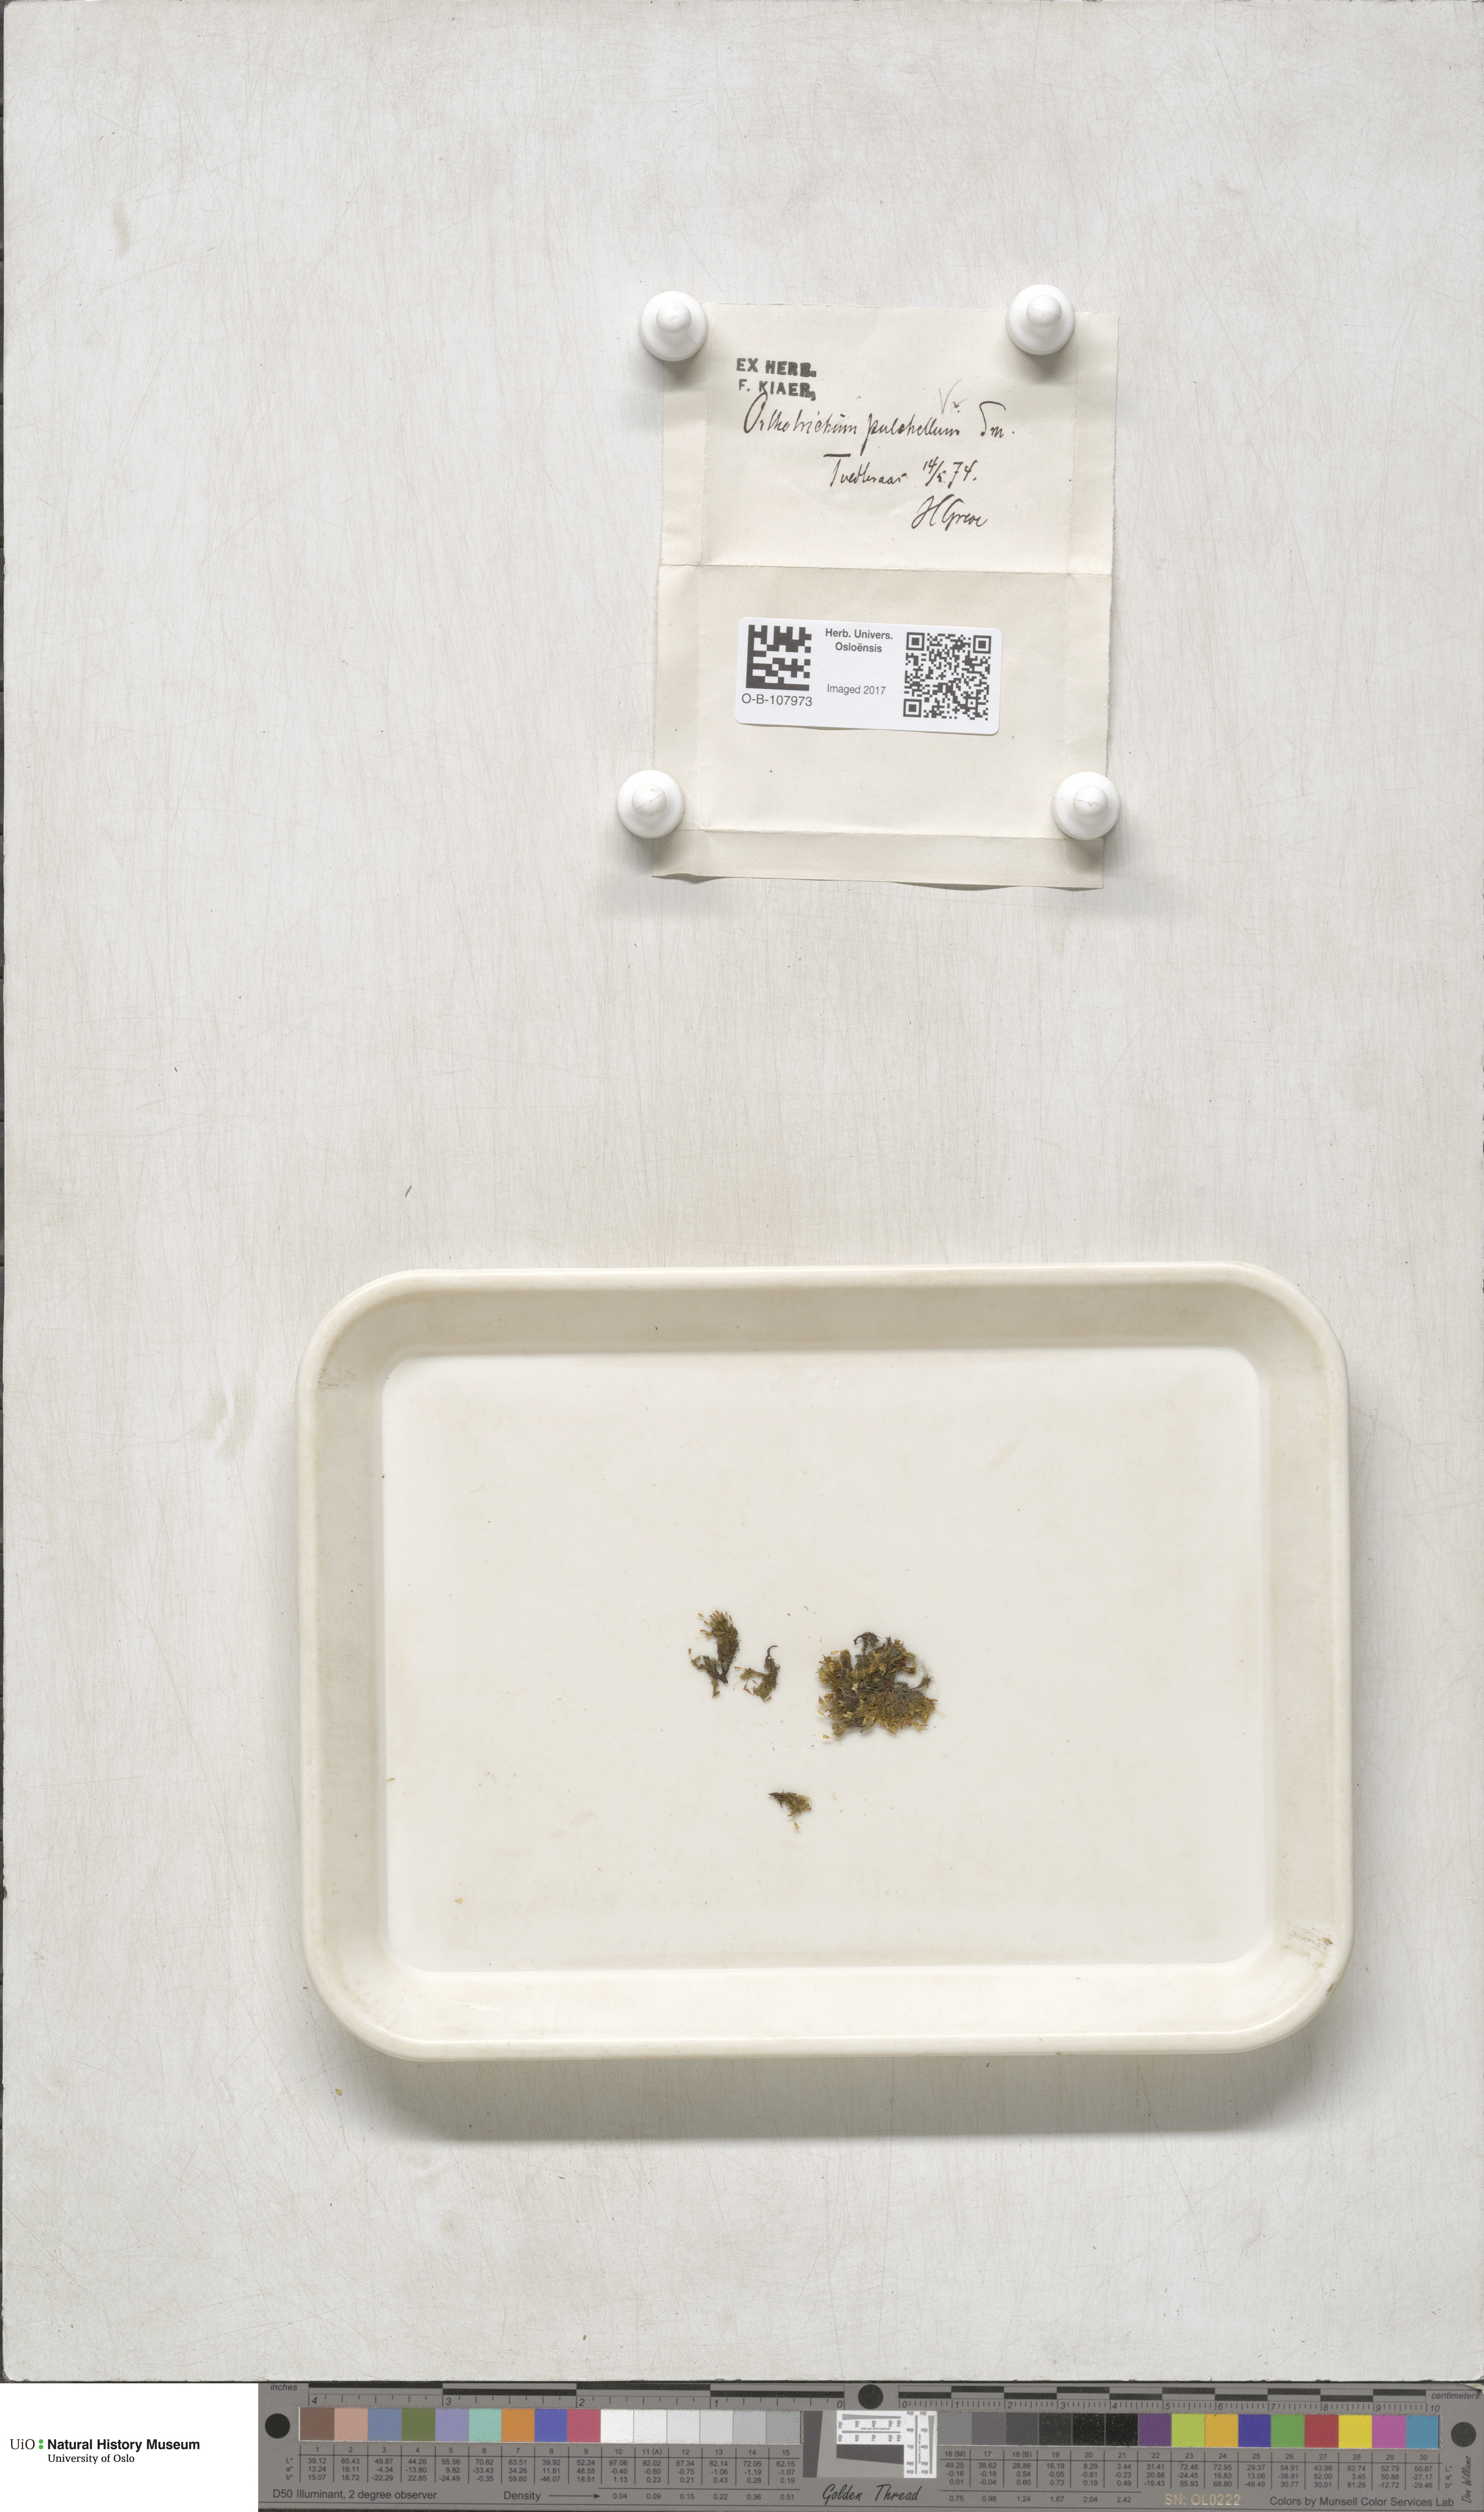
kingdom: Plantae
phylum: Bryophyta
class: Bryopsida
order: Orthotrichales
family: Orthotrichaceae
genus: Orthotrichum
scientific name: Orthotrichum pulchellum
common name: Elegant bristle-moss
